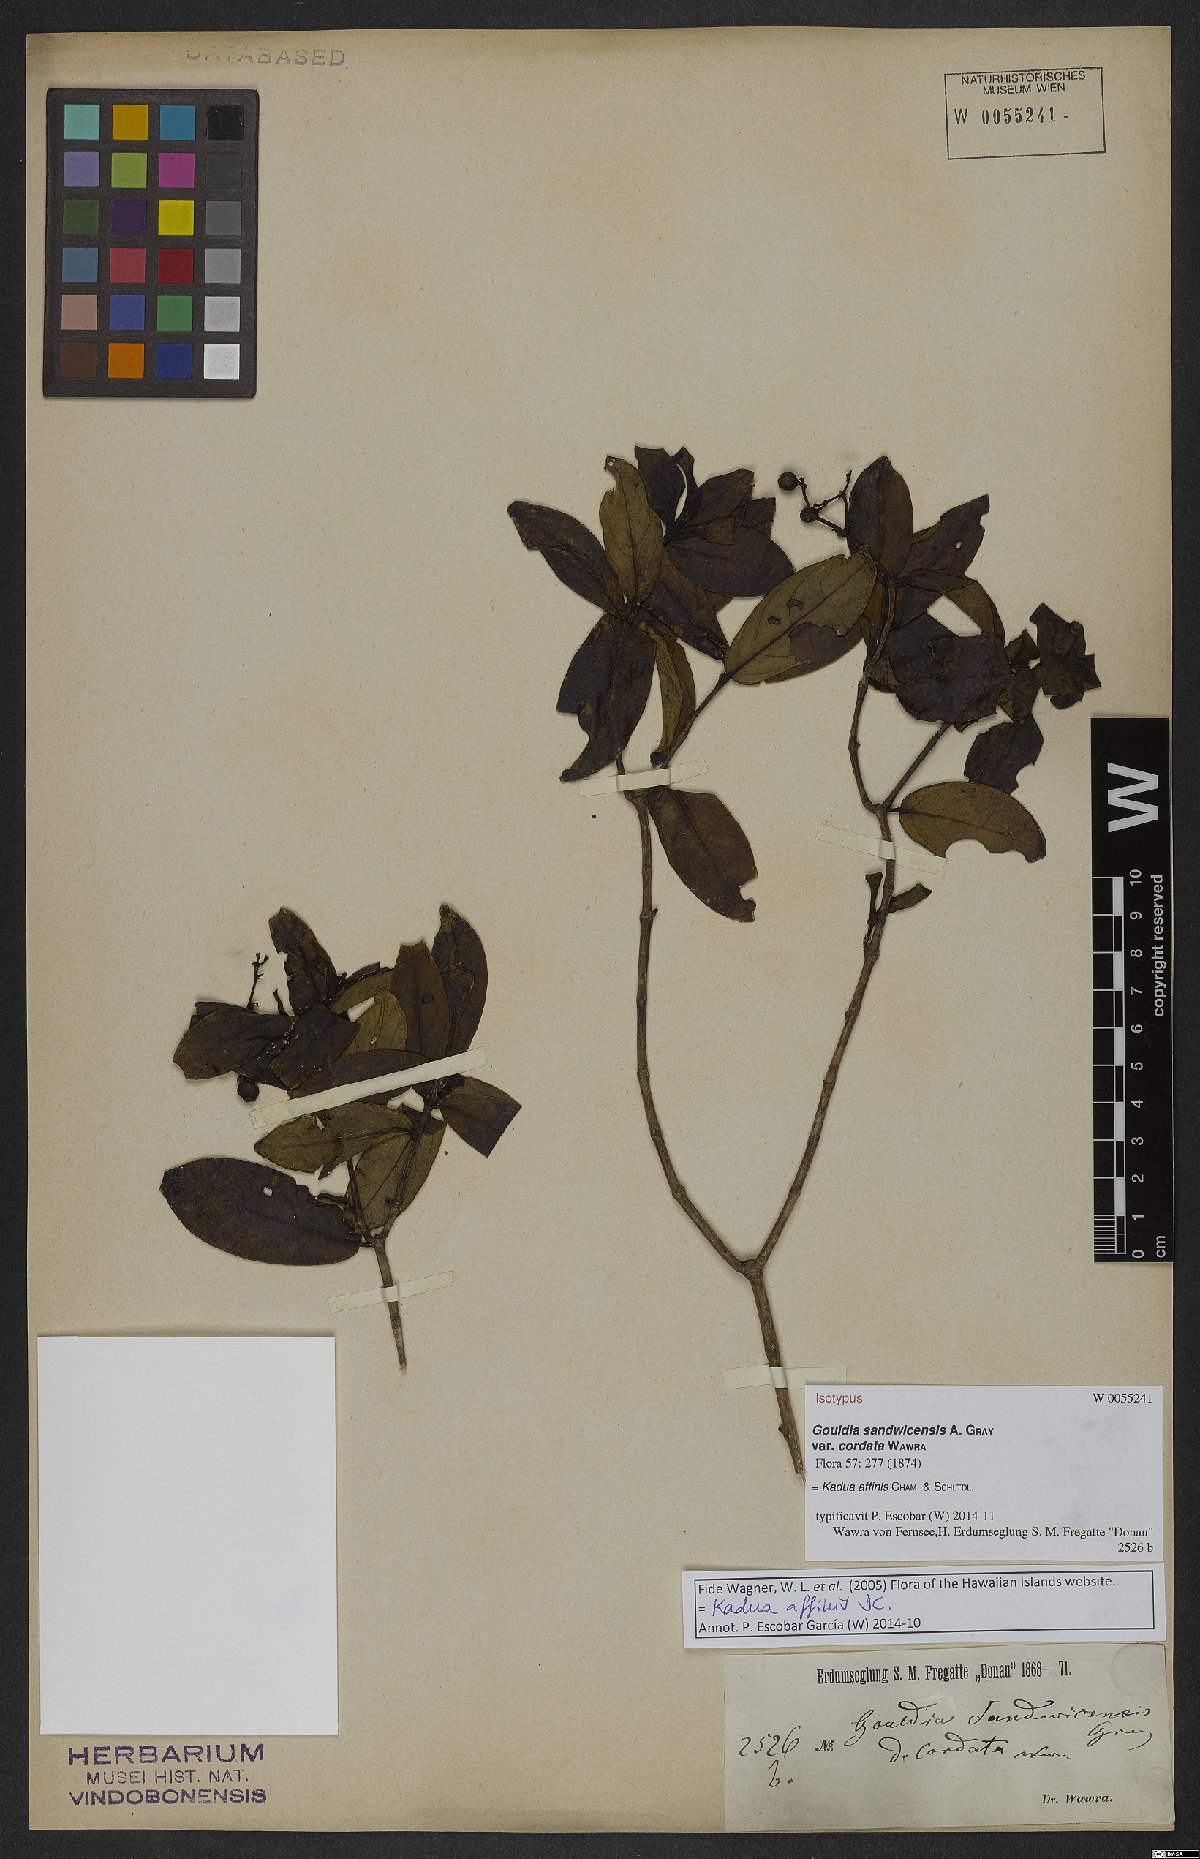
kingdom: Plantae
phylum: Tracheophyta
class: Magnoliopsida
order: Gentianales
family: Rubiaceae
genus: Kadua
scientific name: Kadua affinis
